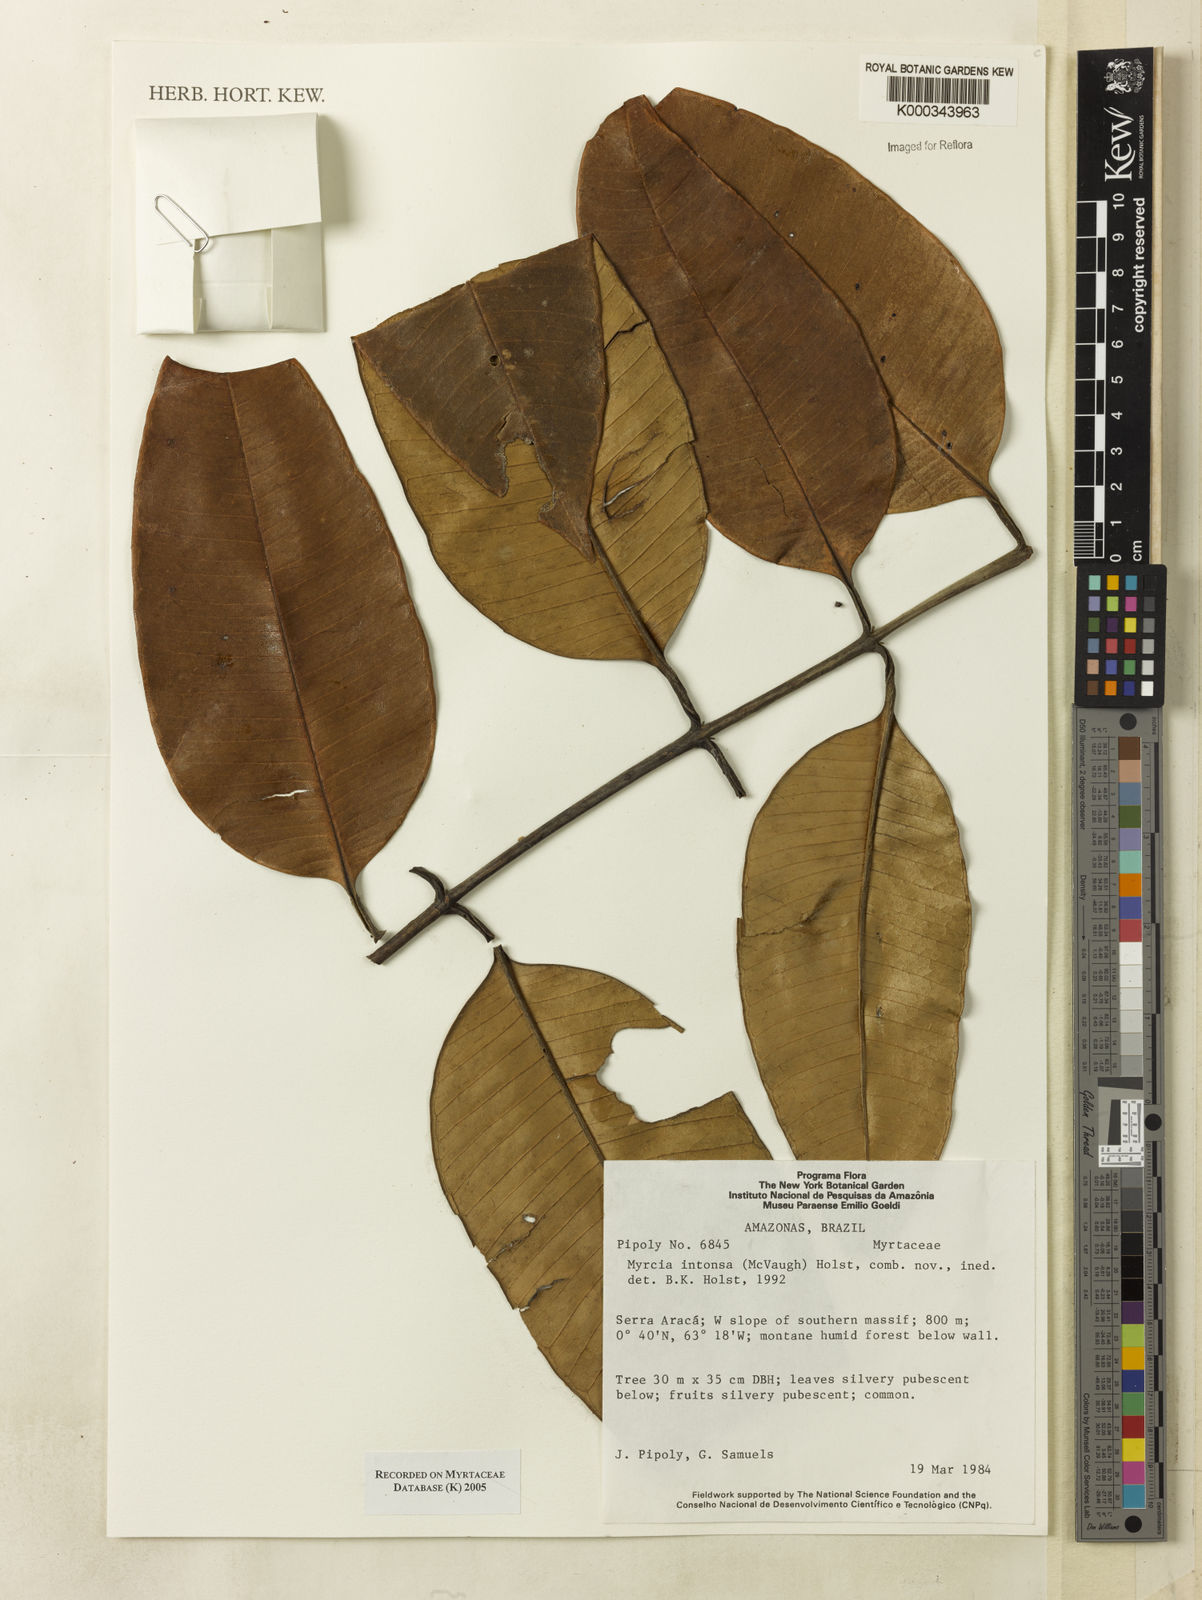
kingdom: Plantae
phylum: Tracheophyta
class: Magnoliopsida
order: Myrtales
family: Myrtaceae
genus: Myrcia
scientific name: Myrcia intonsa
